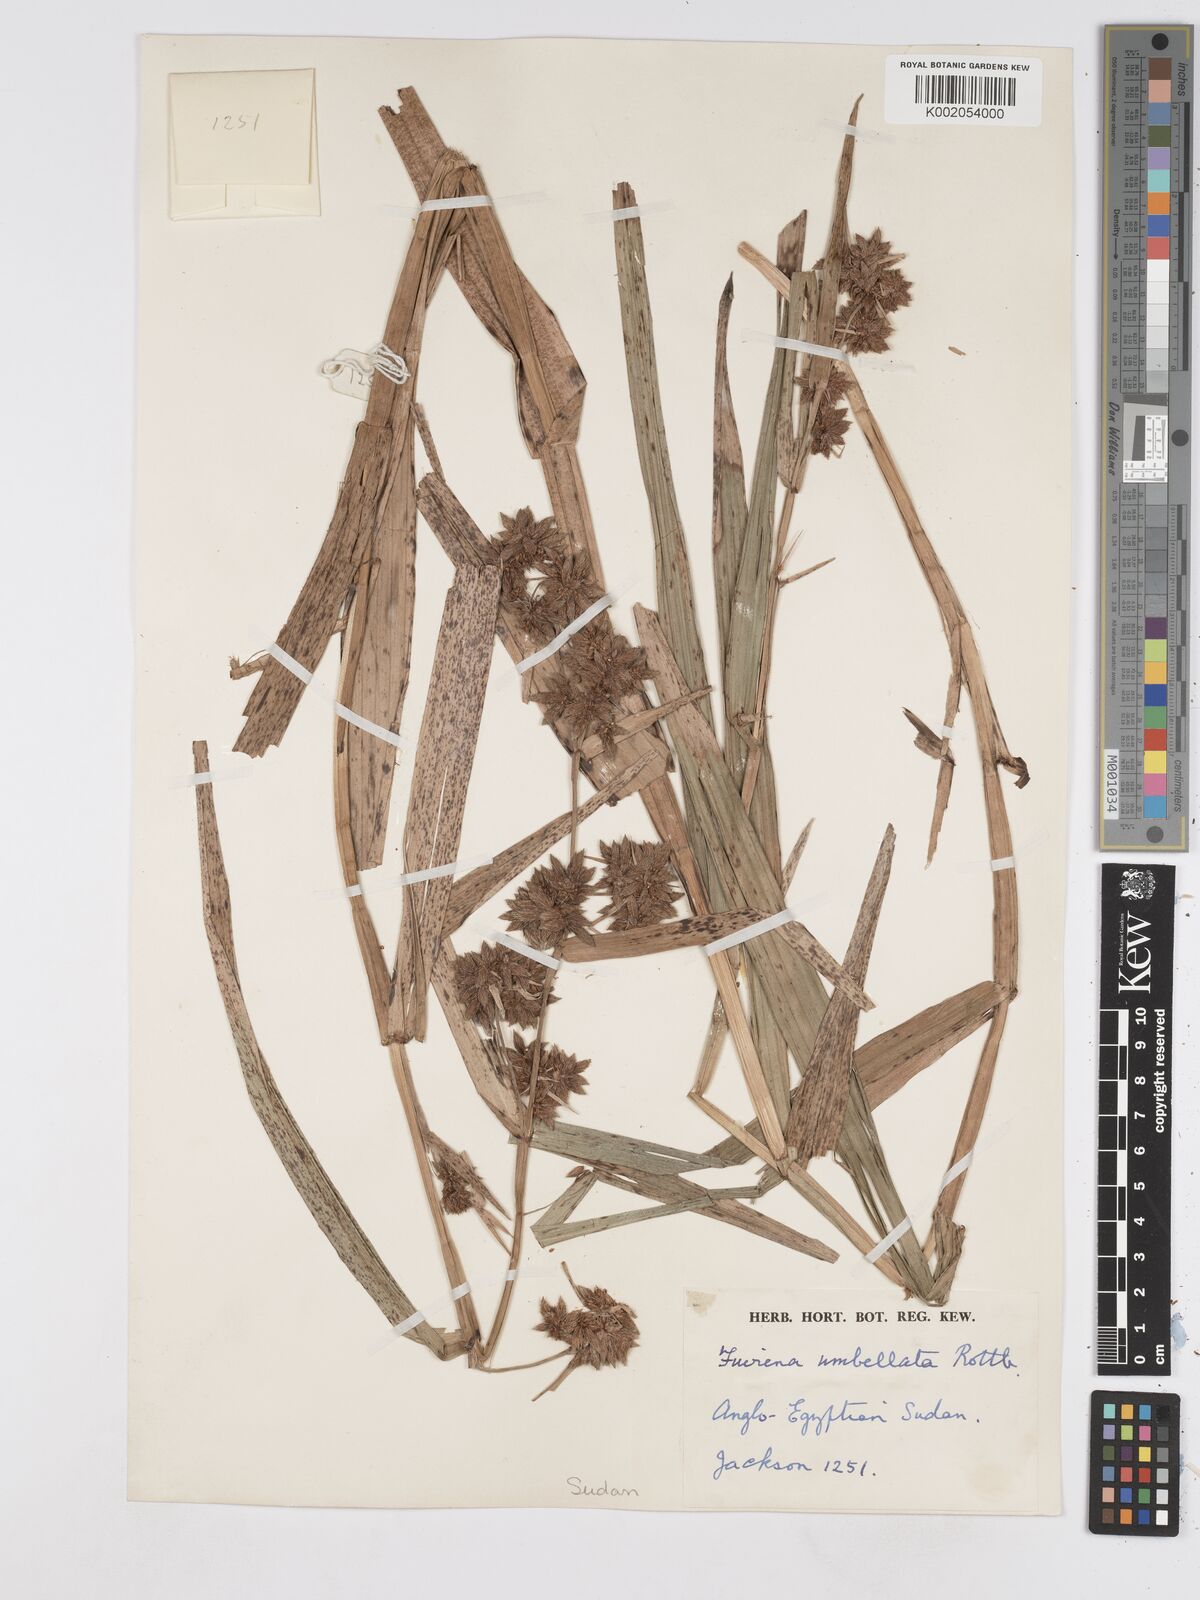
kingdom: Plantae
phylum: Tracheophyta
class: Liliopsida
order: Poales
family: Cyperaceae
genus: Fuirena
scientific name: Fuirena umbellata
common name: Yefen
